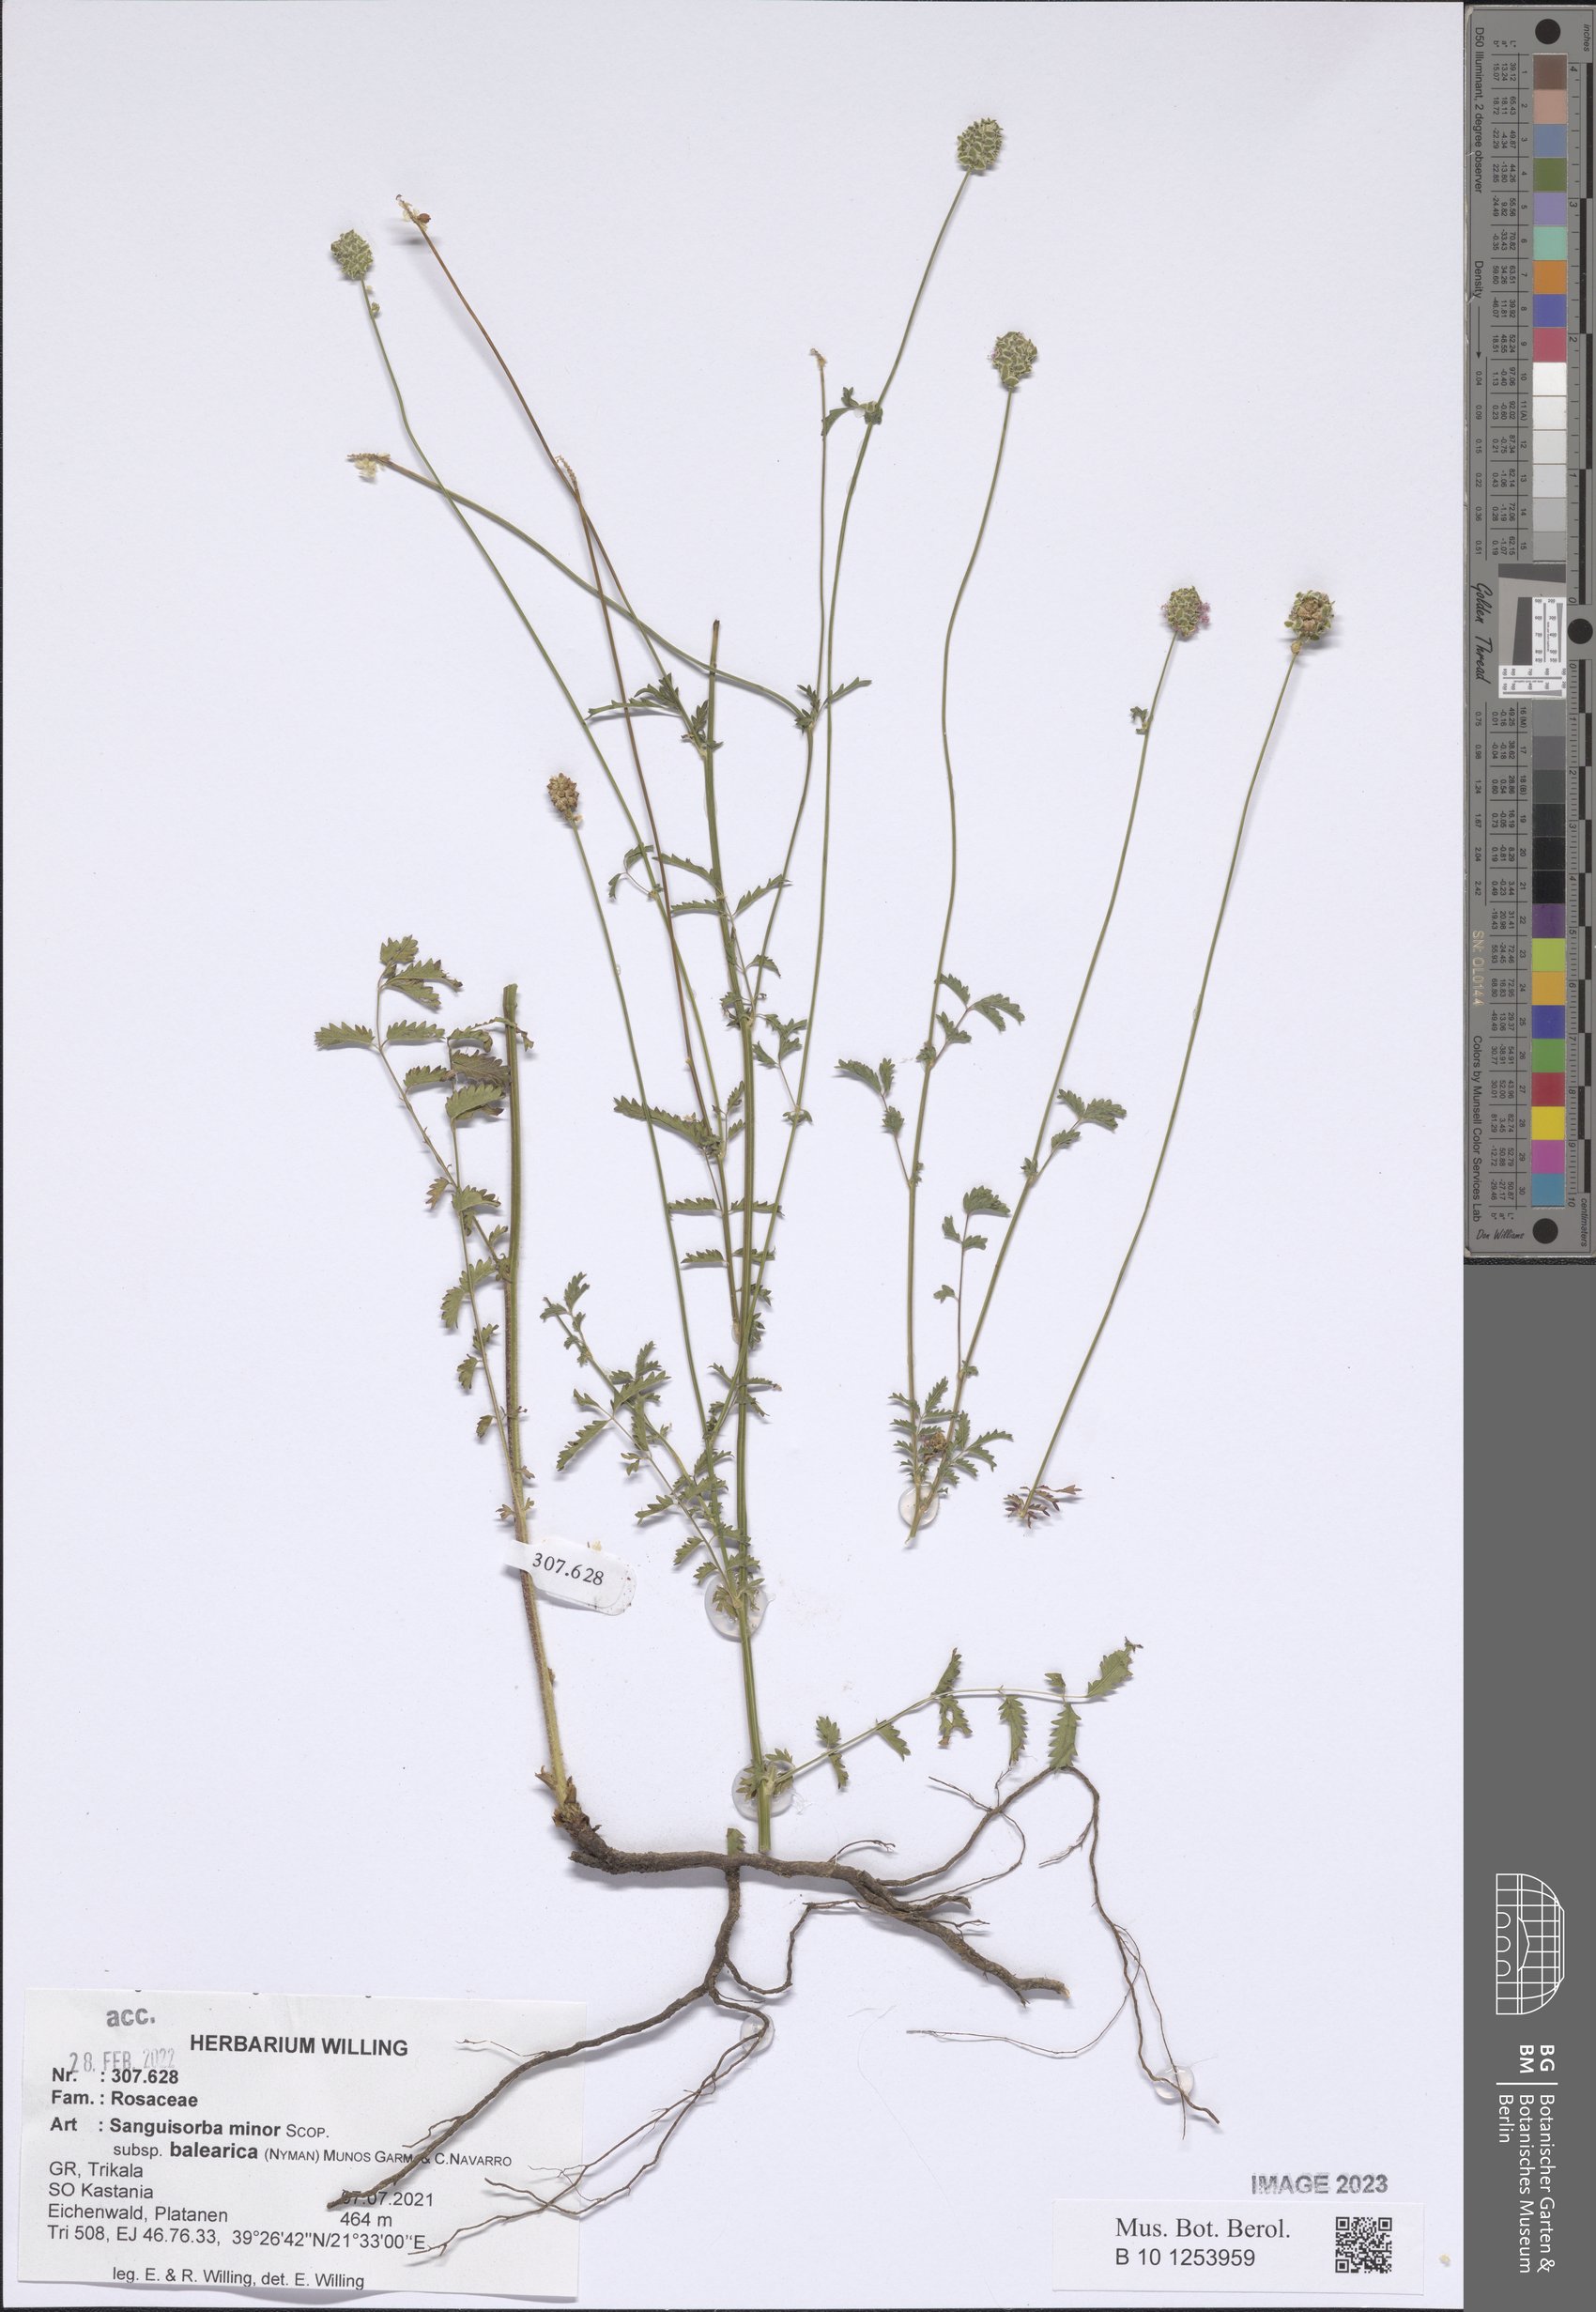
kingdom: Plantae
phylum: Tracheophyta
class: Magnoliopsida
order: Rosales
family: Rosaceae
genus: Poterium
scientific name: Poterium sanguisorba
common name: Salad burnet
